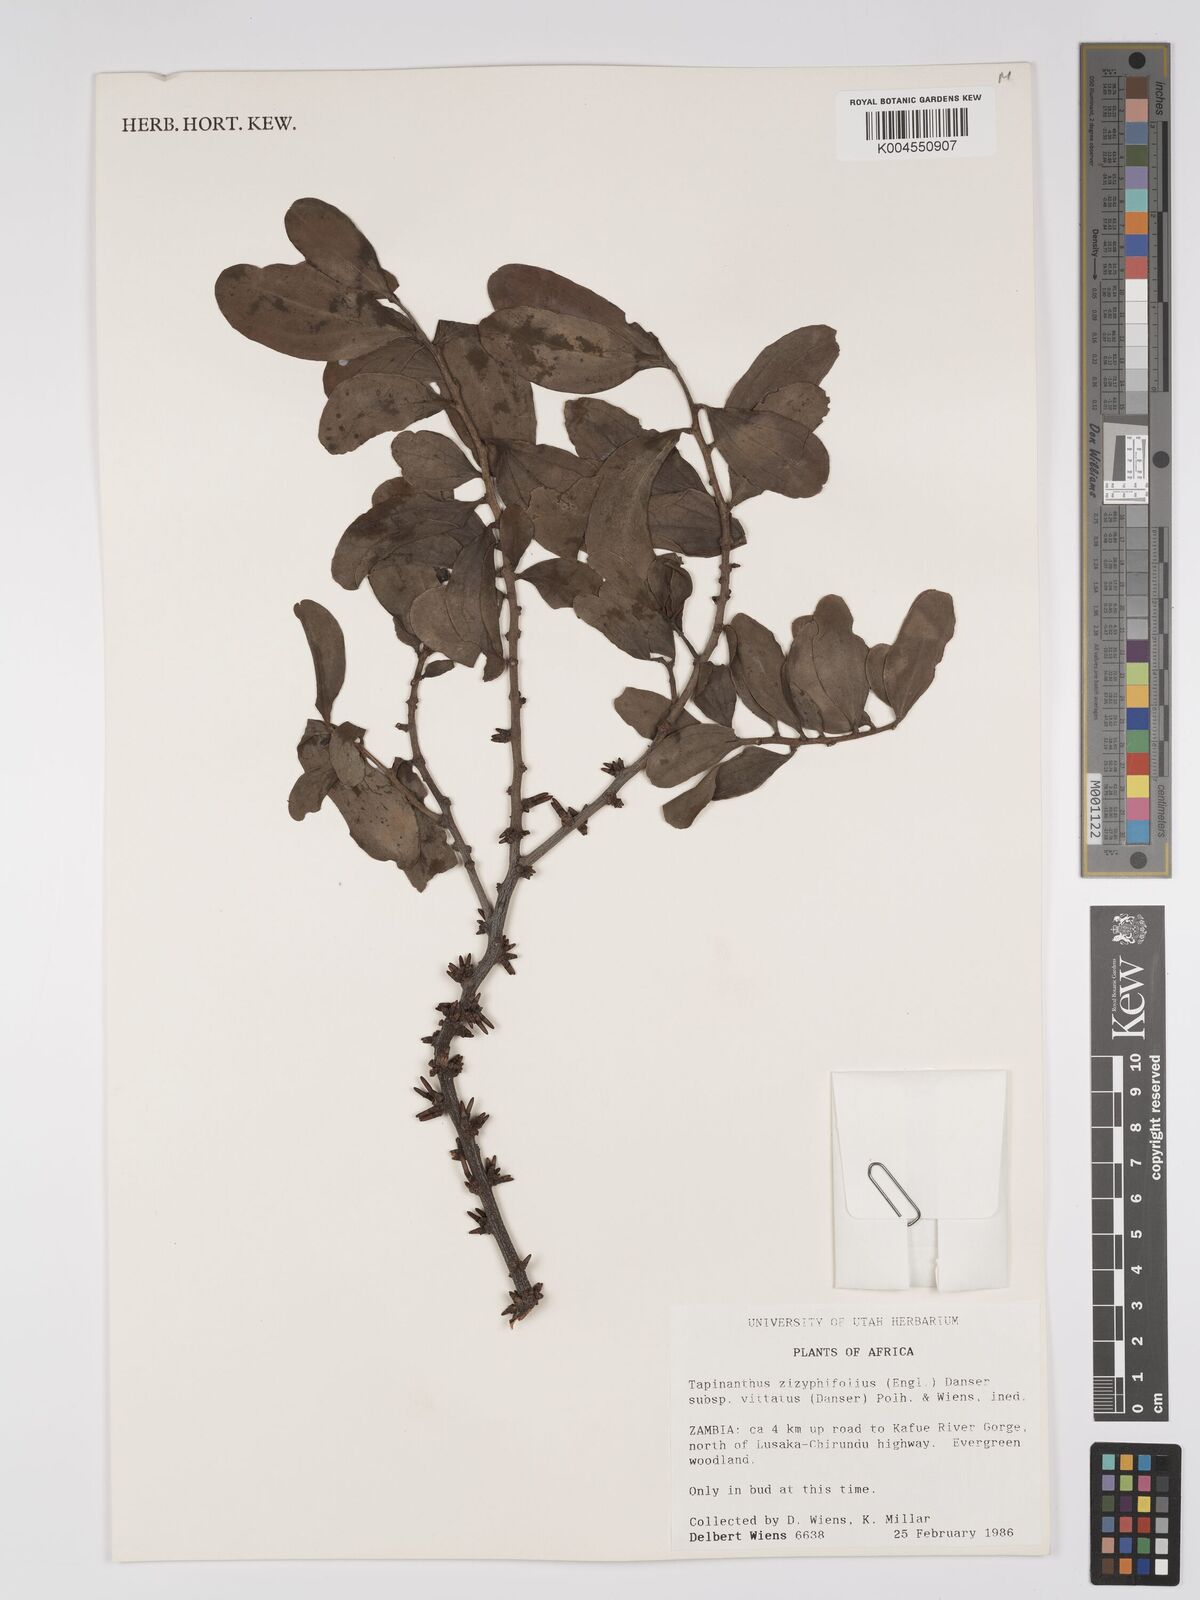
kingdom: Plantae
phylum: Tracheophyta
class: Magnoliopsida
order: Santalales
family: Loranthaceae
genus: Agelanthus
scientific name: Agelanthus zizyphifolius
